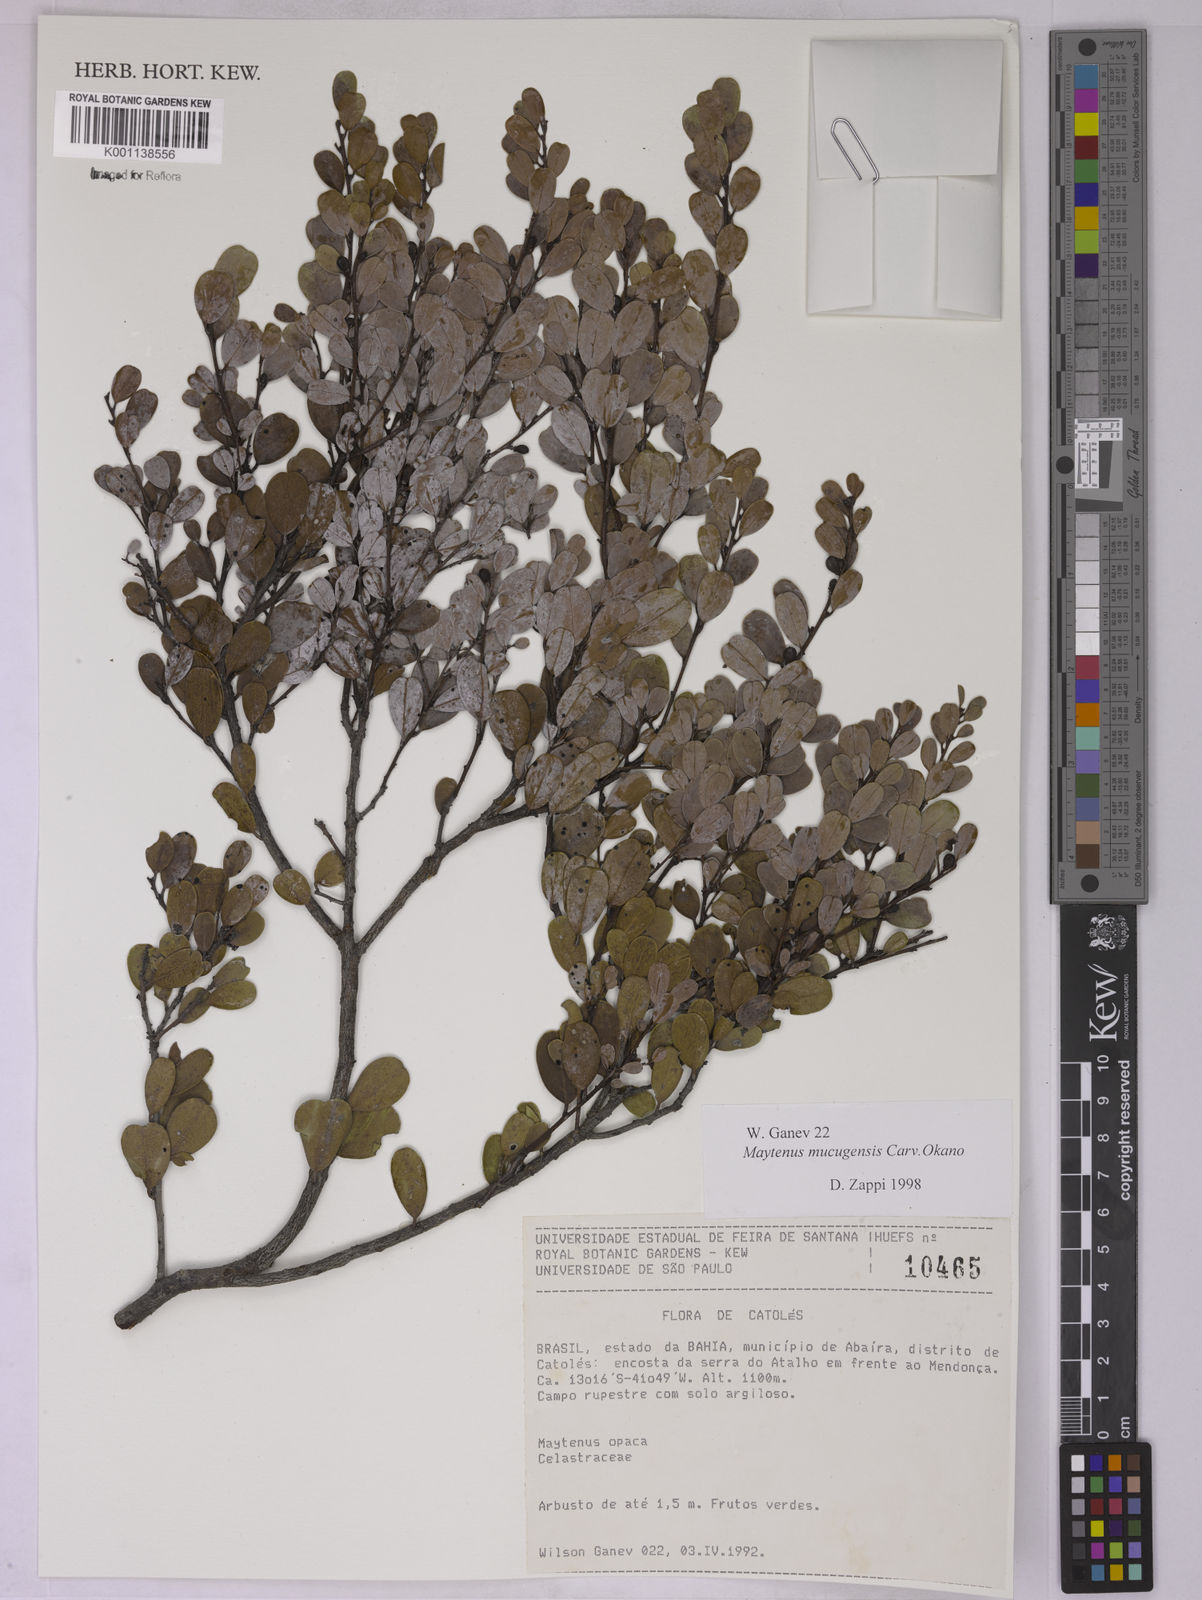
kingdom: Plantae
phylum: Tracheophyta
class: Magnoliopsida
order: Celastrales
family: Celastraceae
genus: Monteverdia
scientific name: Monteverdia mucugensis
